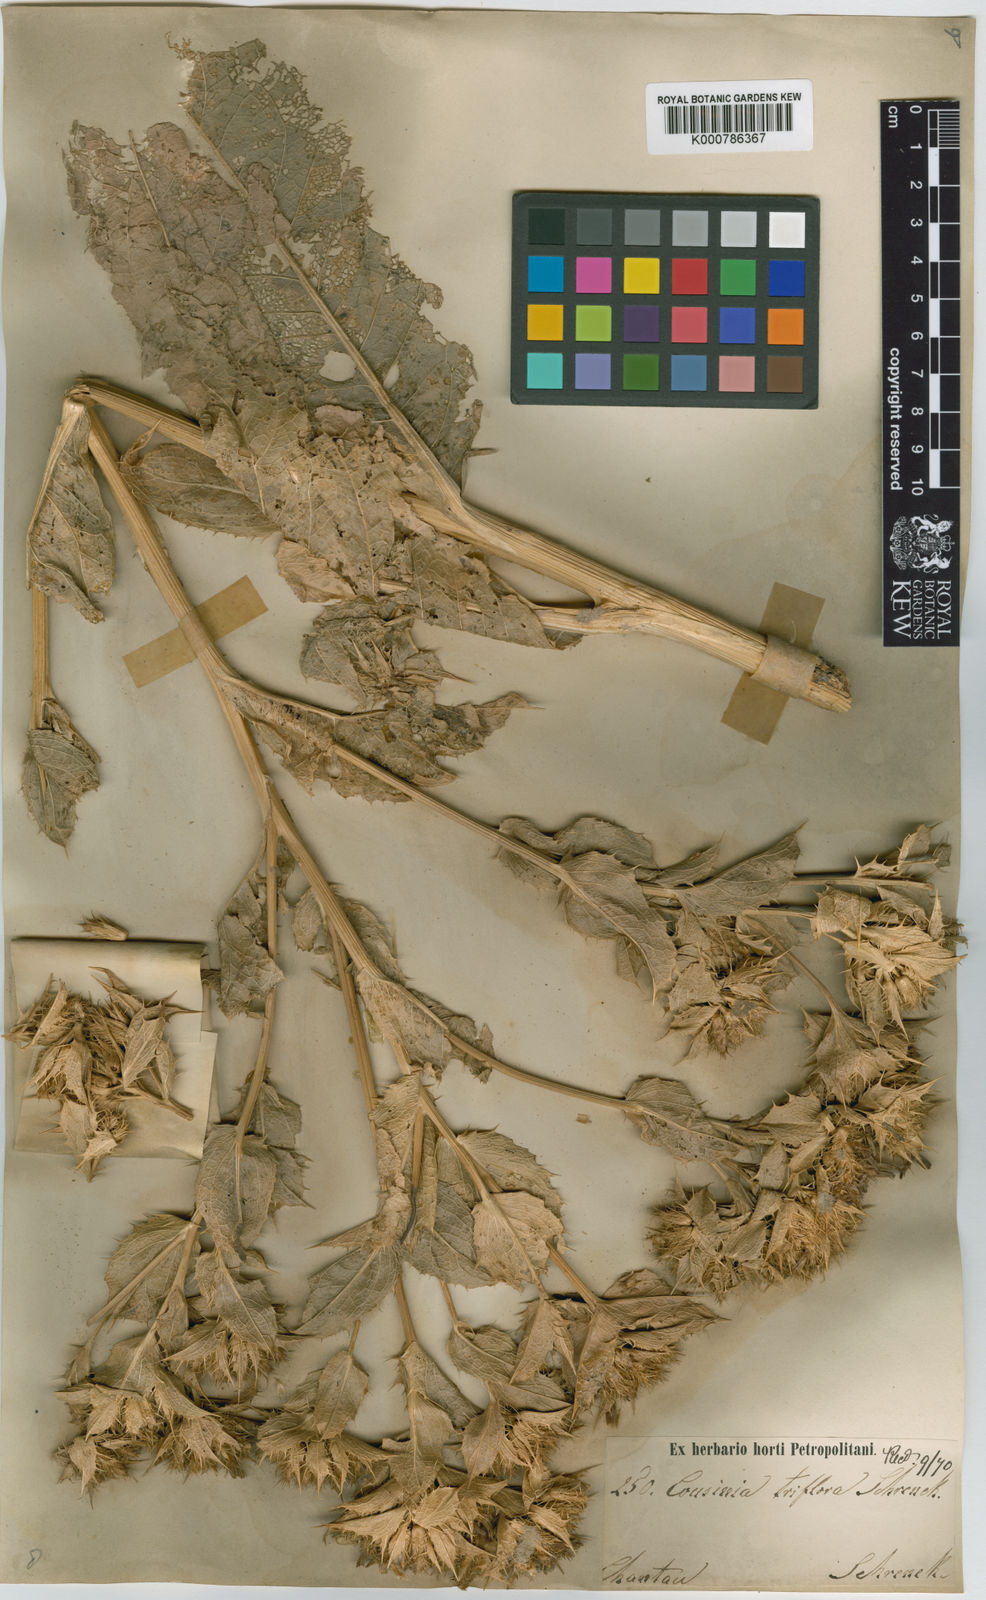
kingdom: Plantae
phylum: Tracheophyta
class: Magnoliopsida
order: Asterales
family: Asteraceae
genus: Arctium
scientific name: Arctium triflorum
